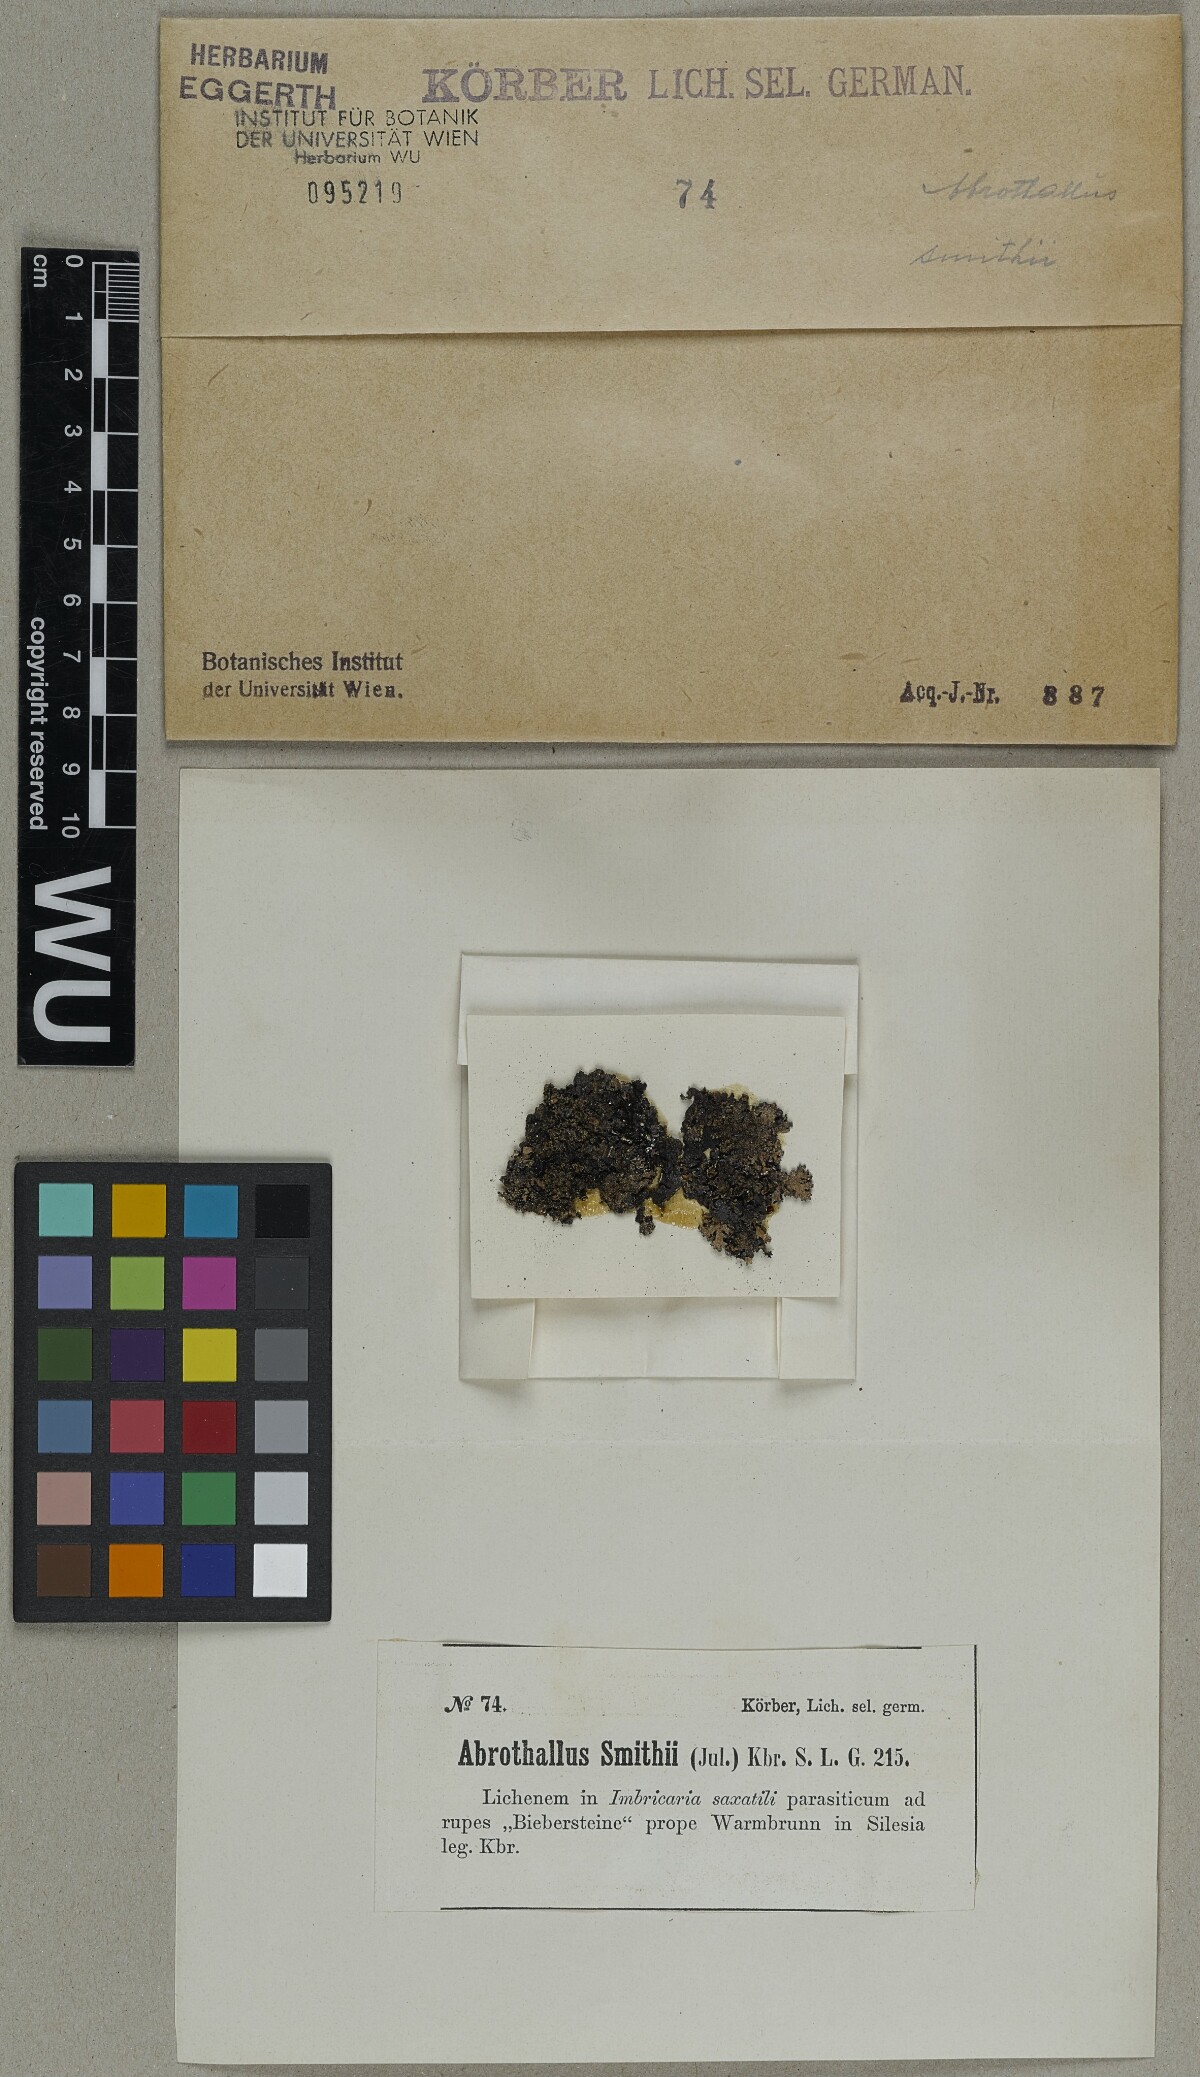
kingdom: Fungi
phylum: Ascomycota
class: Dothideomycetes
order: Abrothallales
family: Abrothallaceae
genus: Abrothallus
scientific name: Abrothallus parmeliarum
